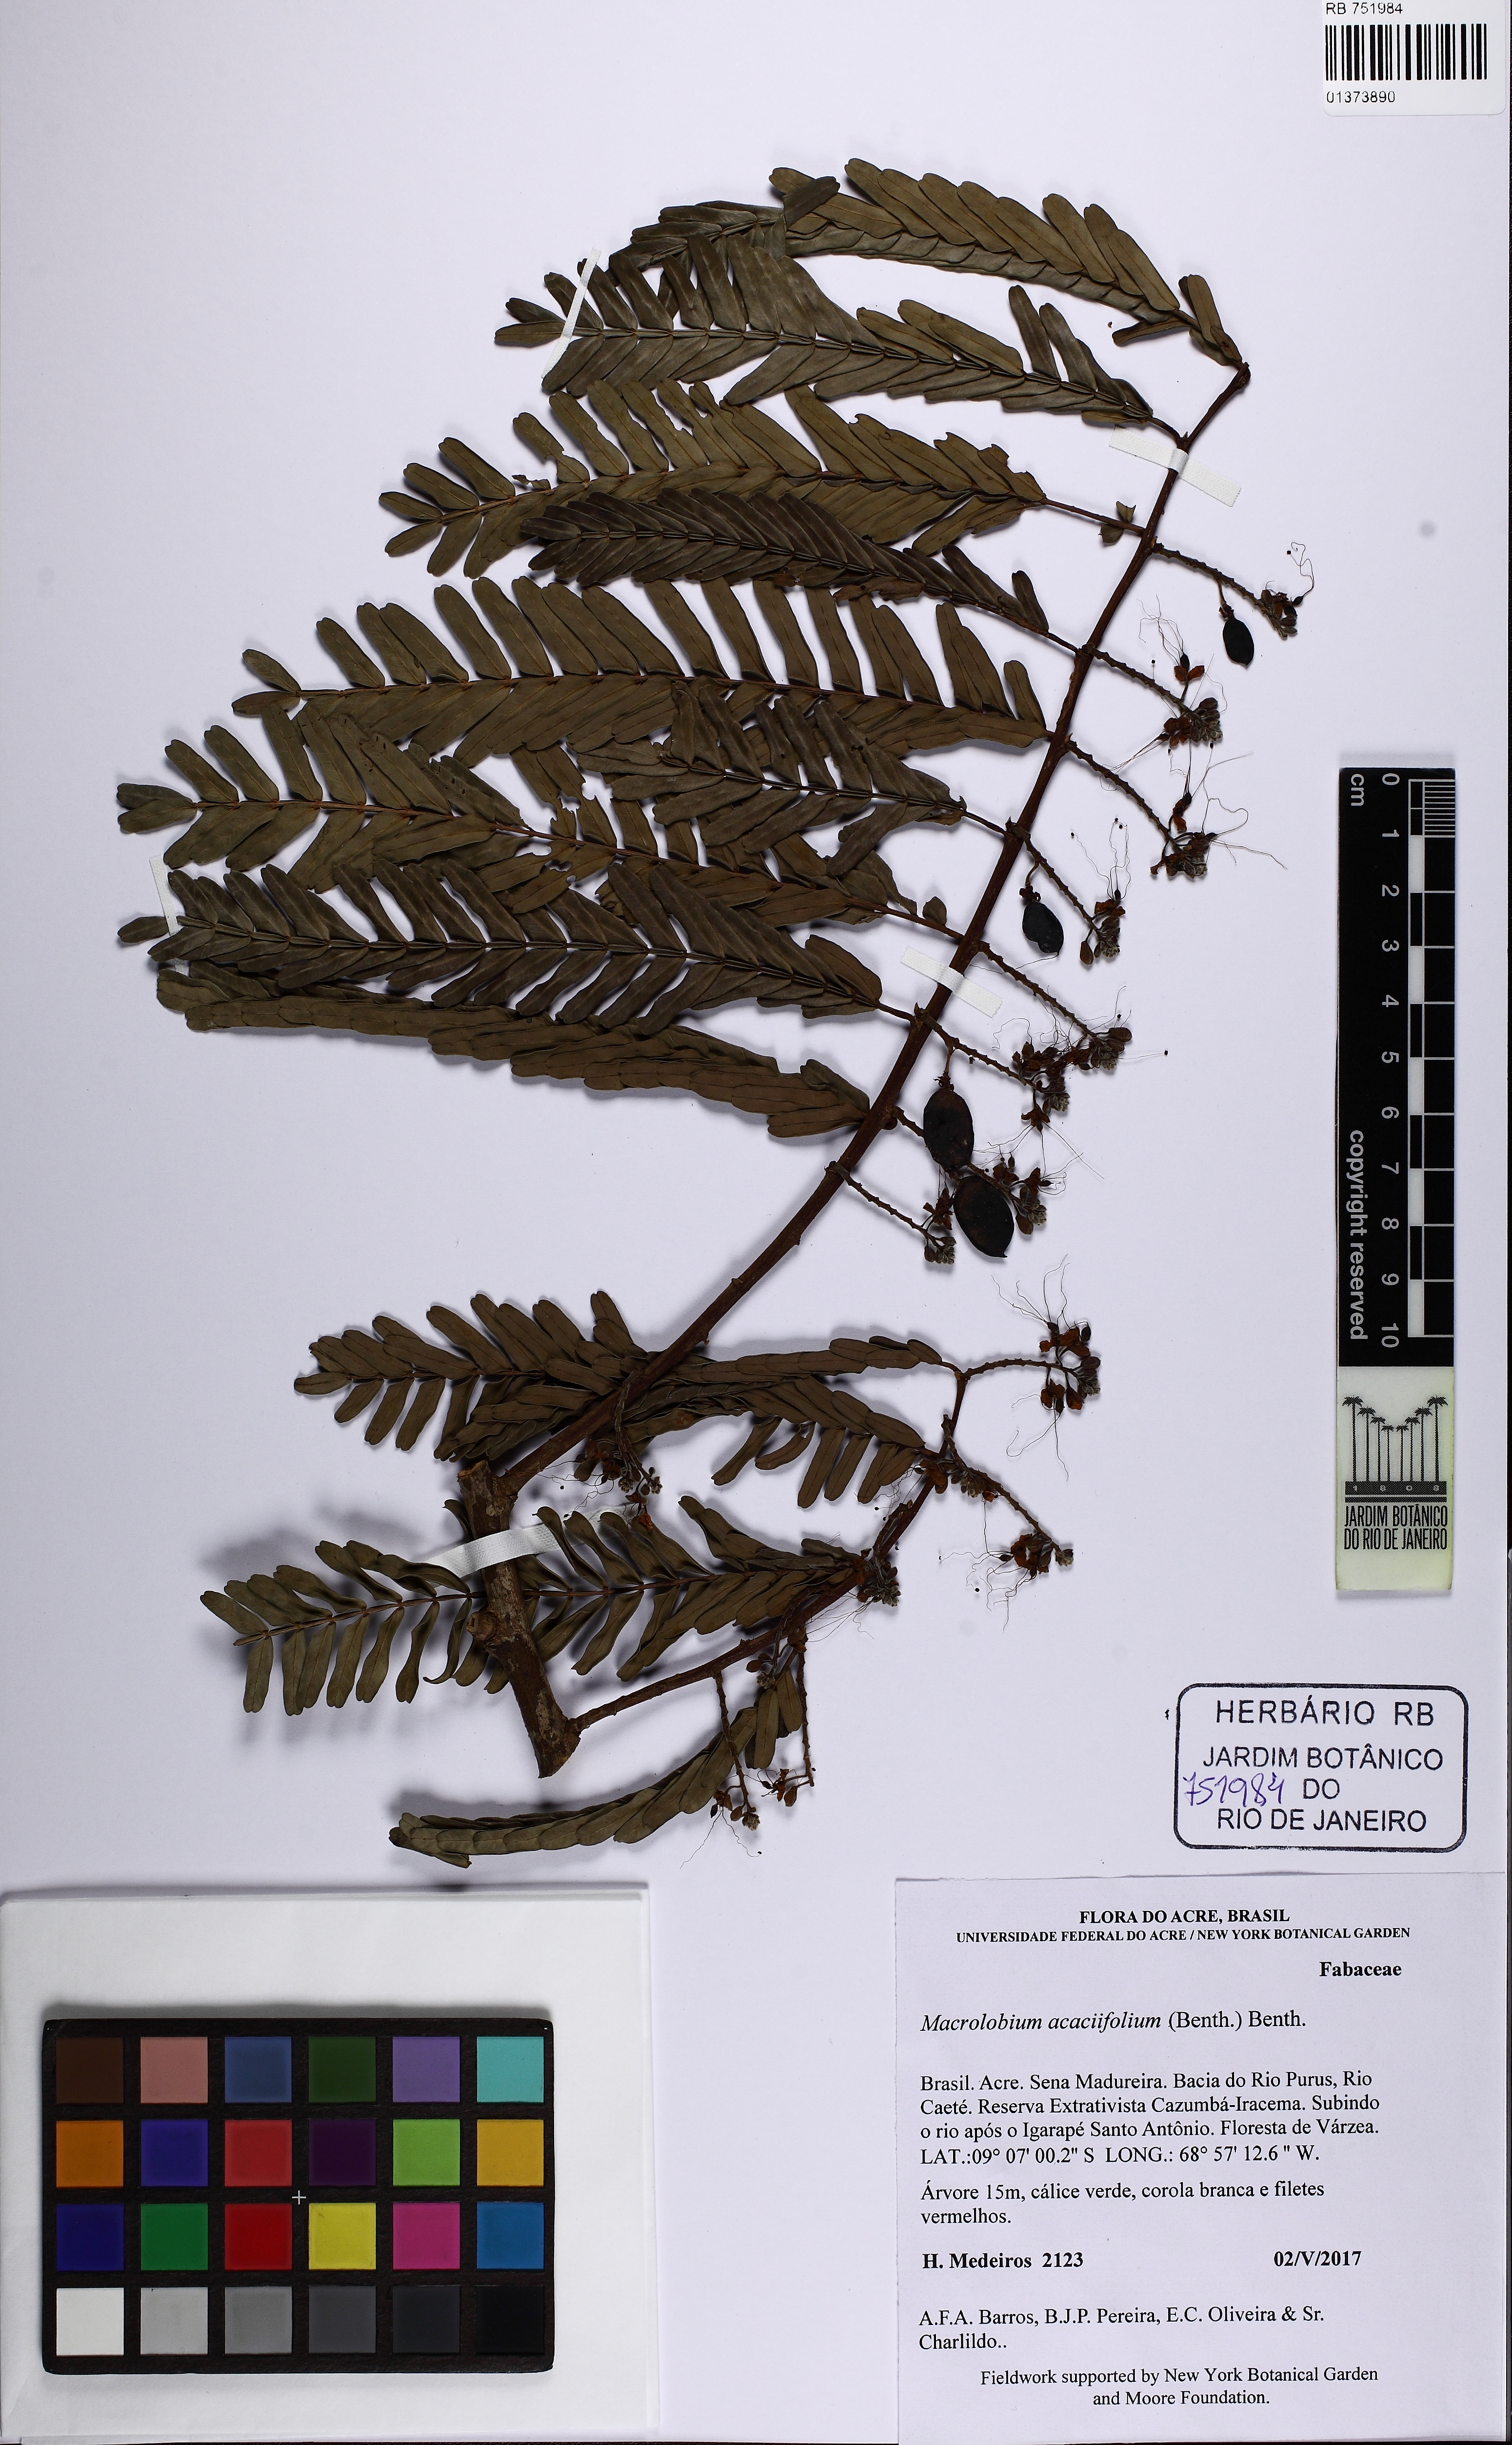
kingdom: Plantae
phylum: Tracheophyta
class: Magnoliopsida
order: Fabales
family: Fabaceae
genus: Macrolobium
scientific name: Macrolobium acaciifolium
